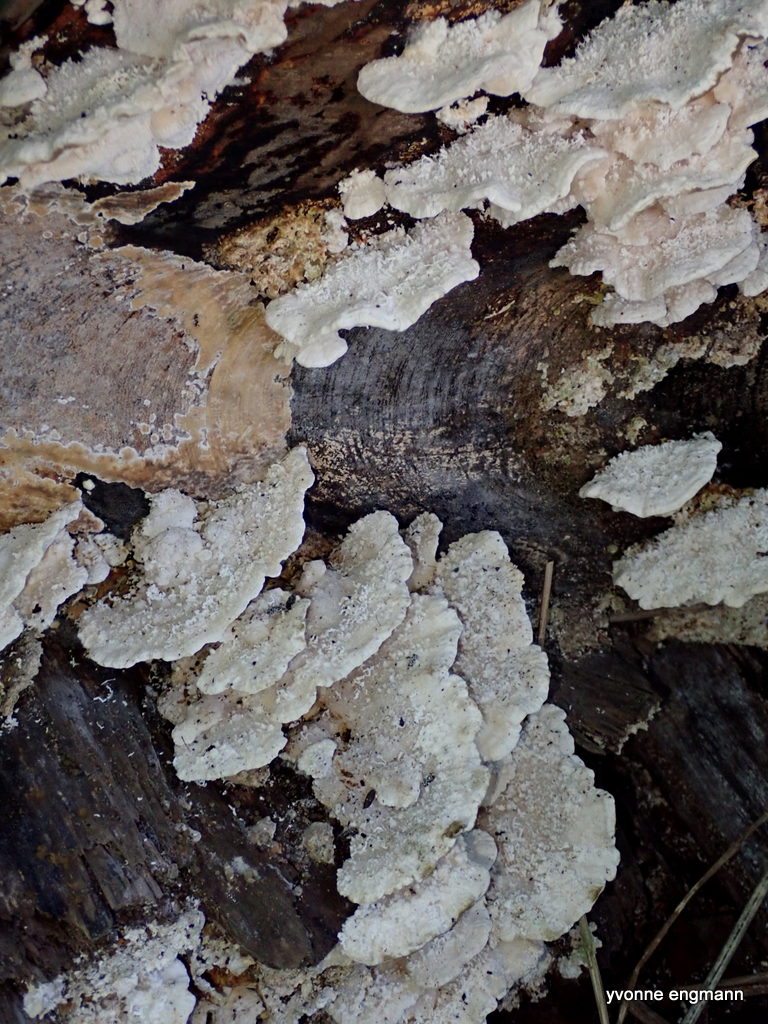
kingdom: Fungi
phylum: Basidiomycota
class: Agaricomycetes
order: Polyporales
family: Polyporaceae
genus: Trametes
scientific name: Trametes hirsuta
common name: håret læderporesvamp
